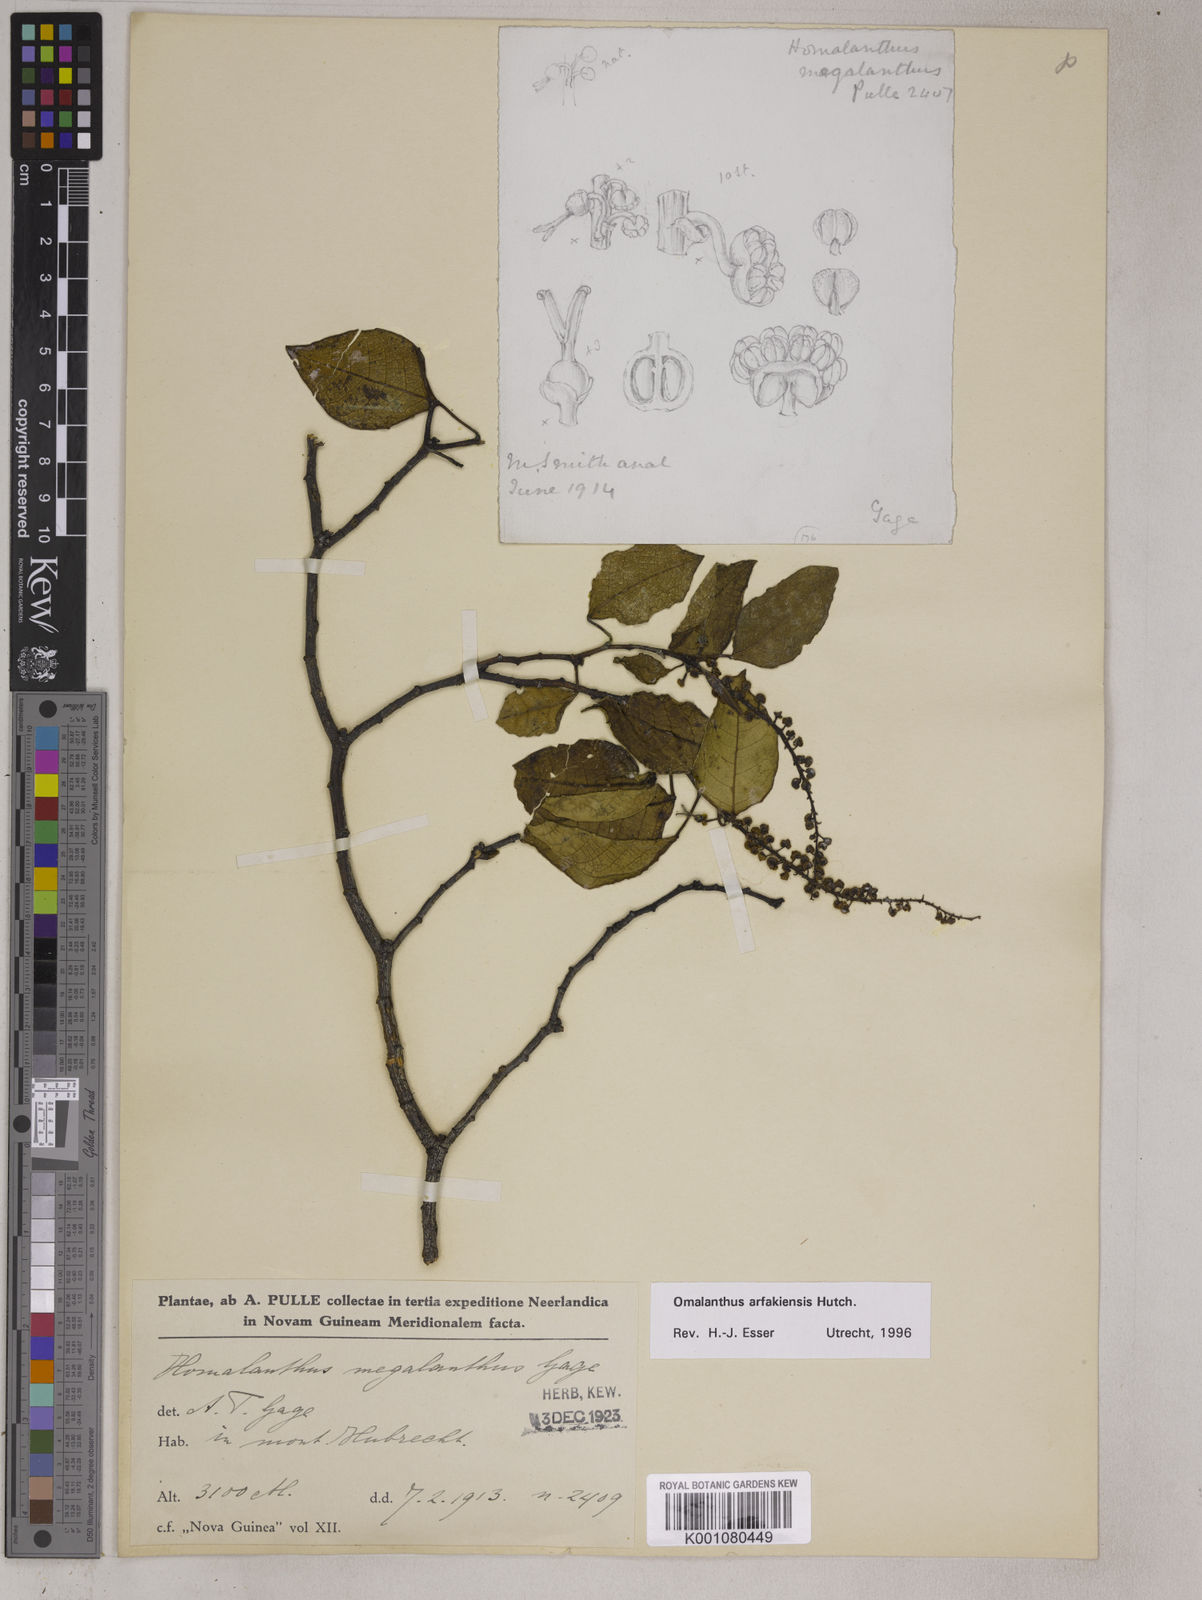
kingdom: Plantae
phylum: Tracheophyta
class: Magnoliopsida
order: Malpighiales
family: Euphorbiaceae
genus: Homalanthus
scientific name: Homalanthus arfakiensis
